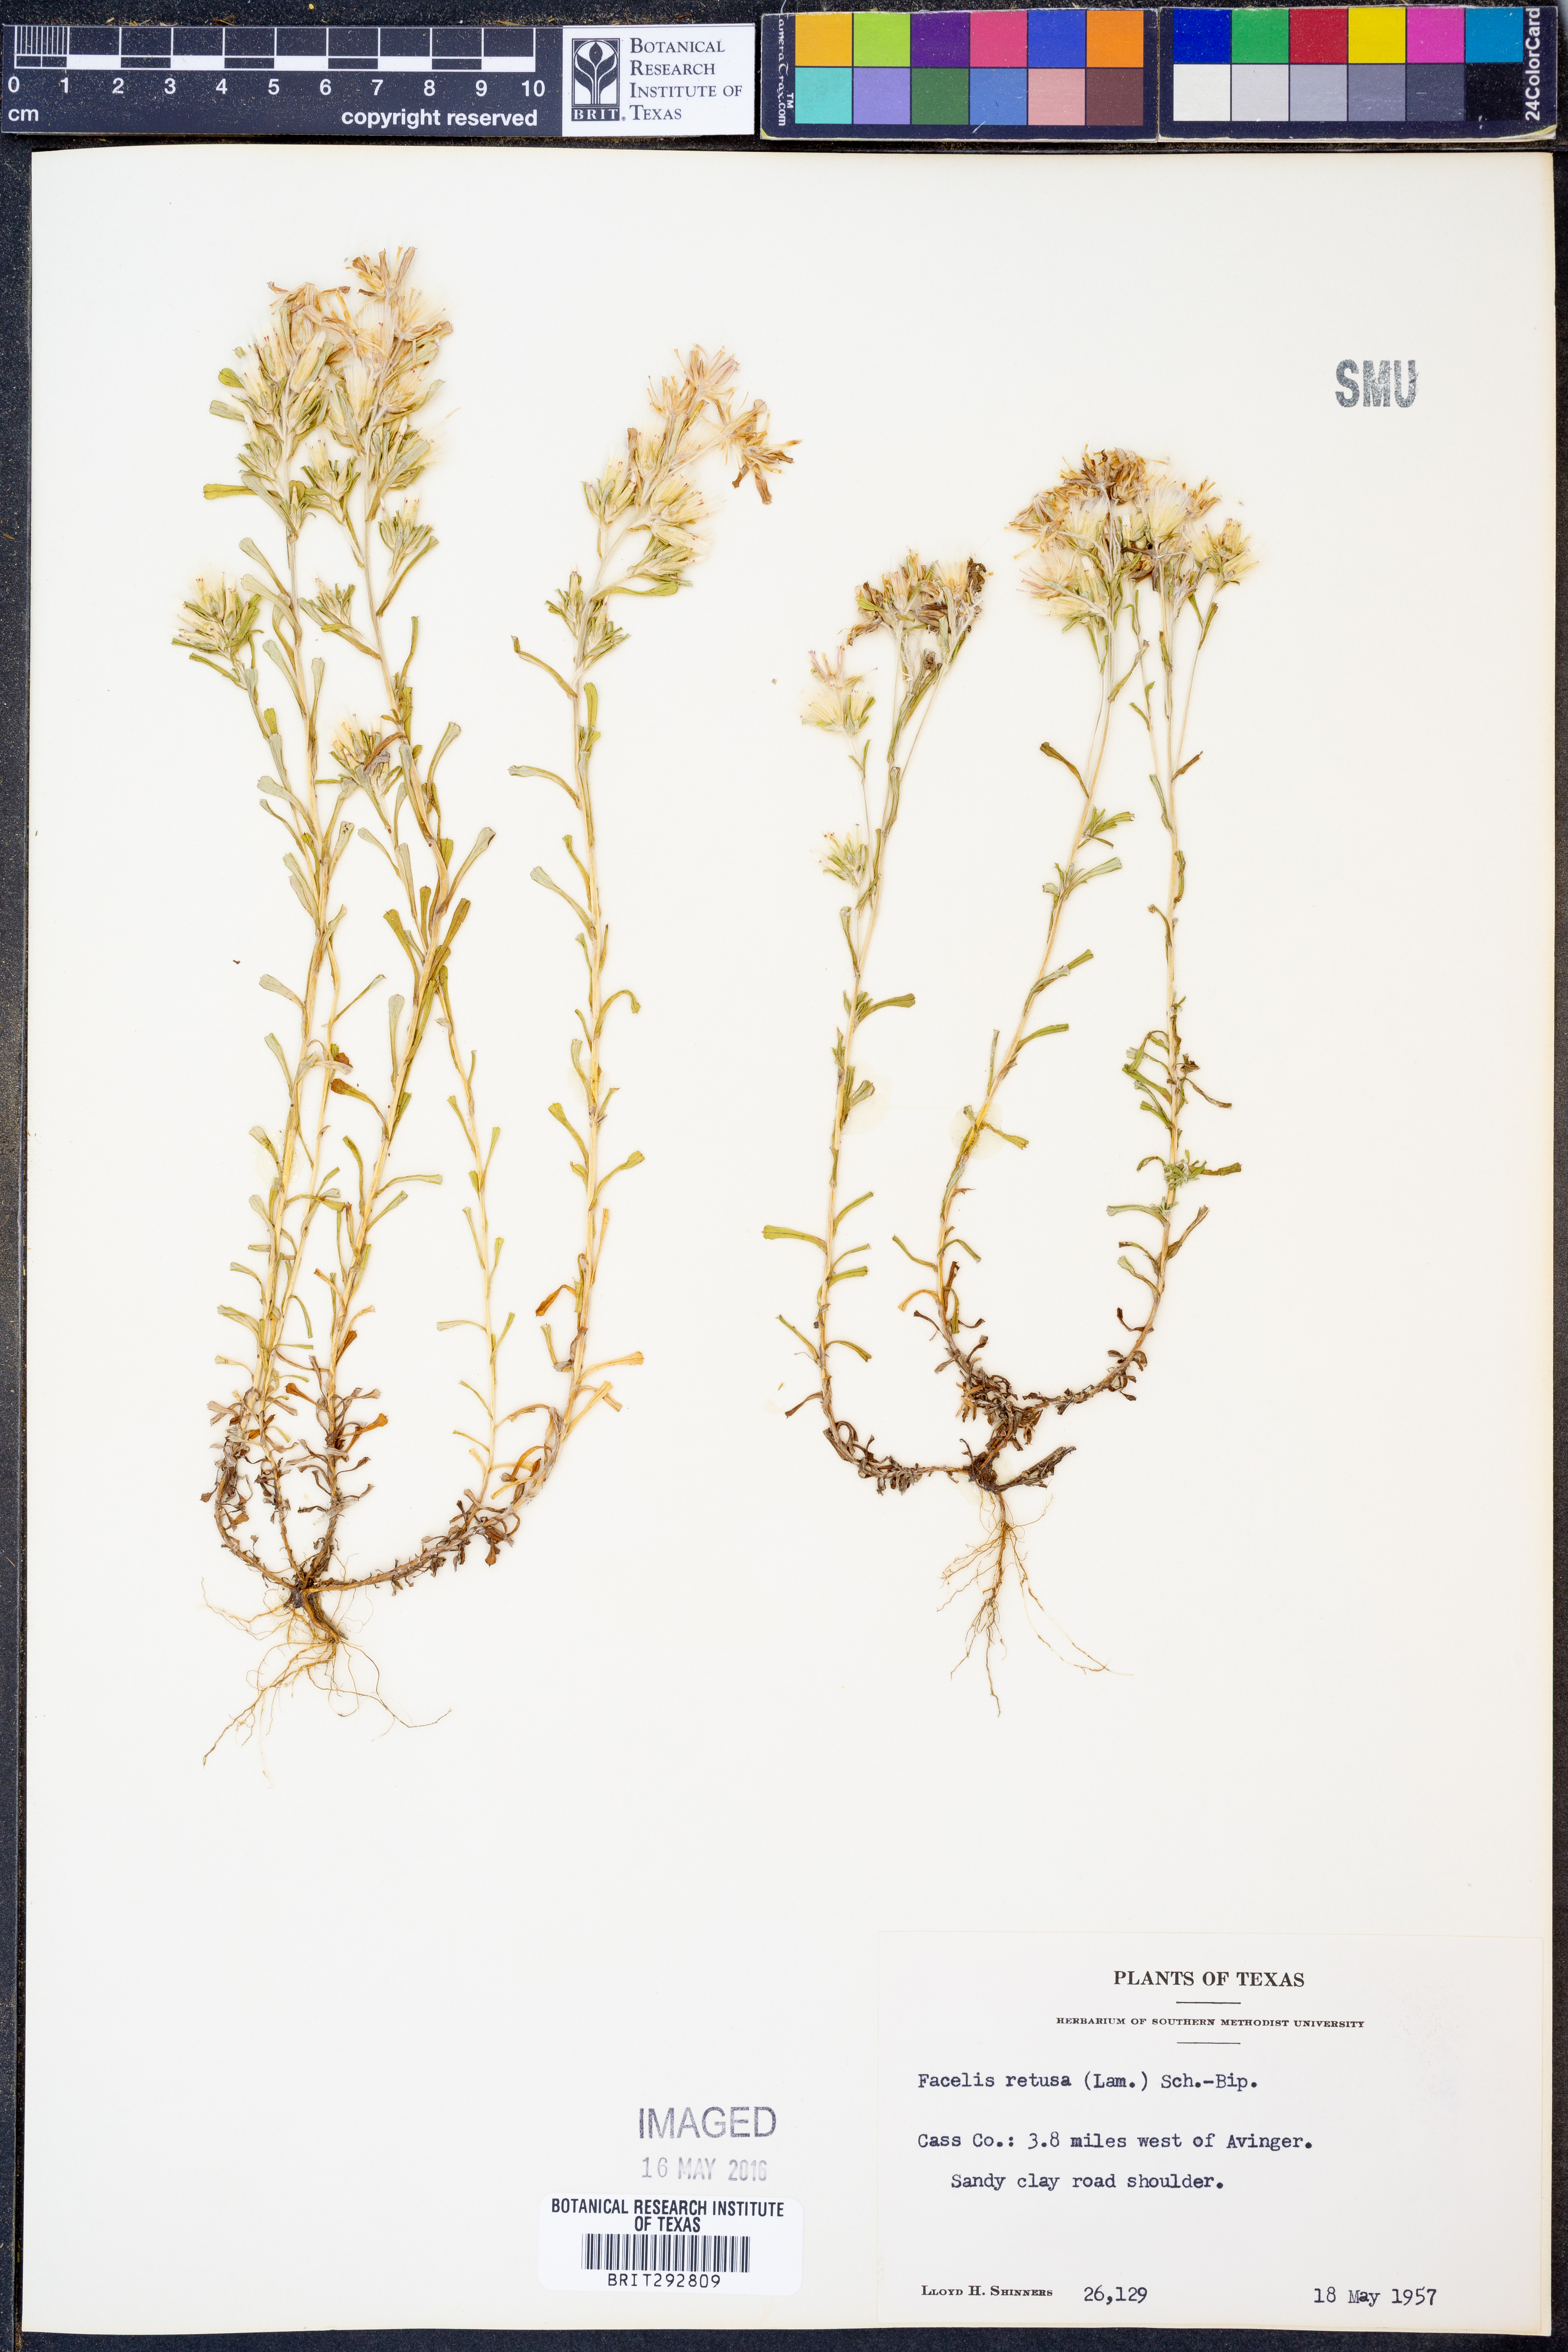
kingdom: Plantae
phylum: Tracheophyta
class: Magnoliopsida
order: Asterales
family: Asteraceae
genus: Facelis
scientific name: Facelis retusa
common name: Annual trampweed
